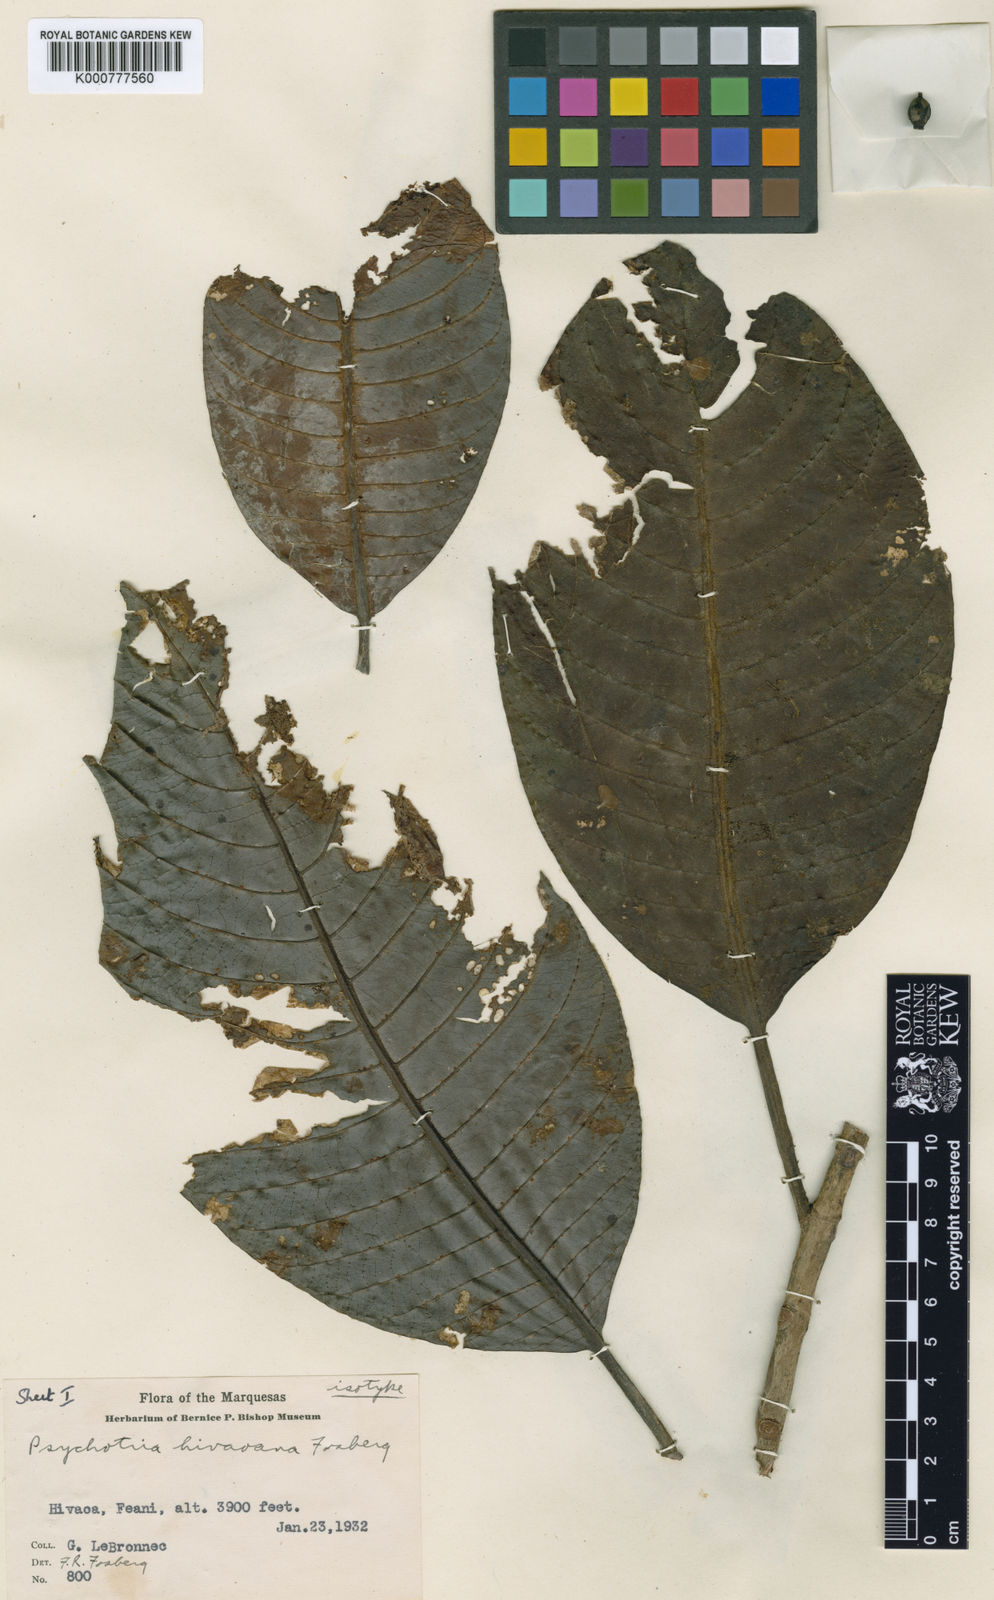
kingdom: Plantae
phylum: Tracheophyta
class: Magnoliopsida
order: Gentianales
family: Rubiaceae
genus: Psychotria
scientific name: Psychotria hivaoana
